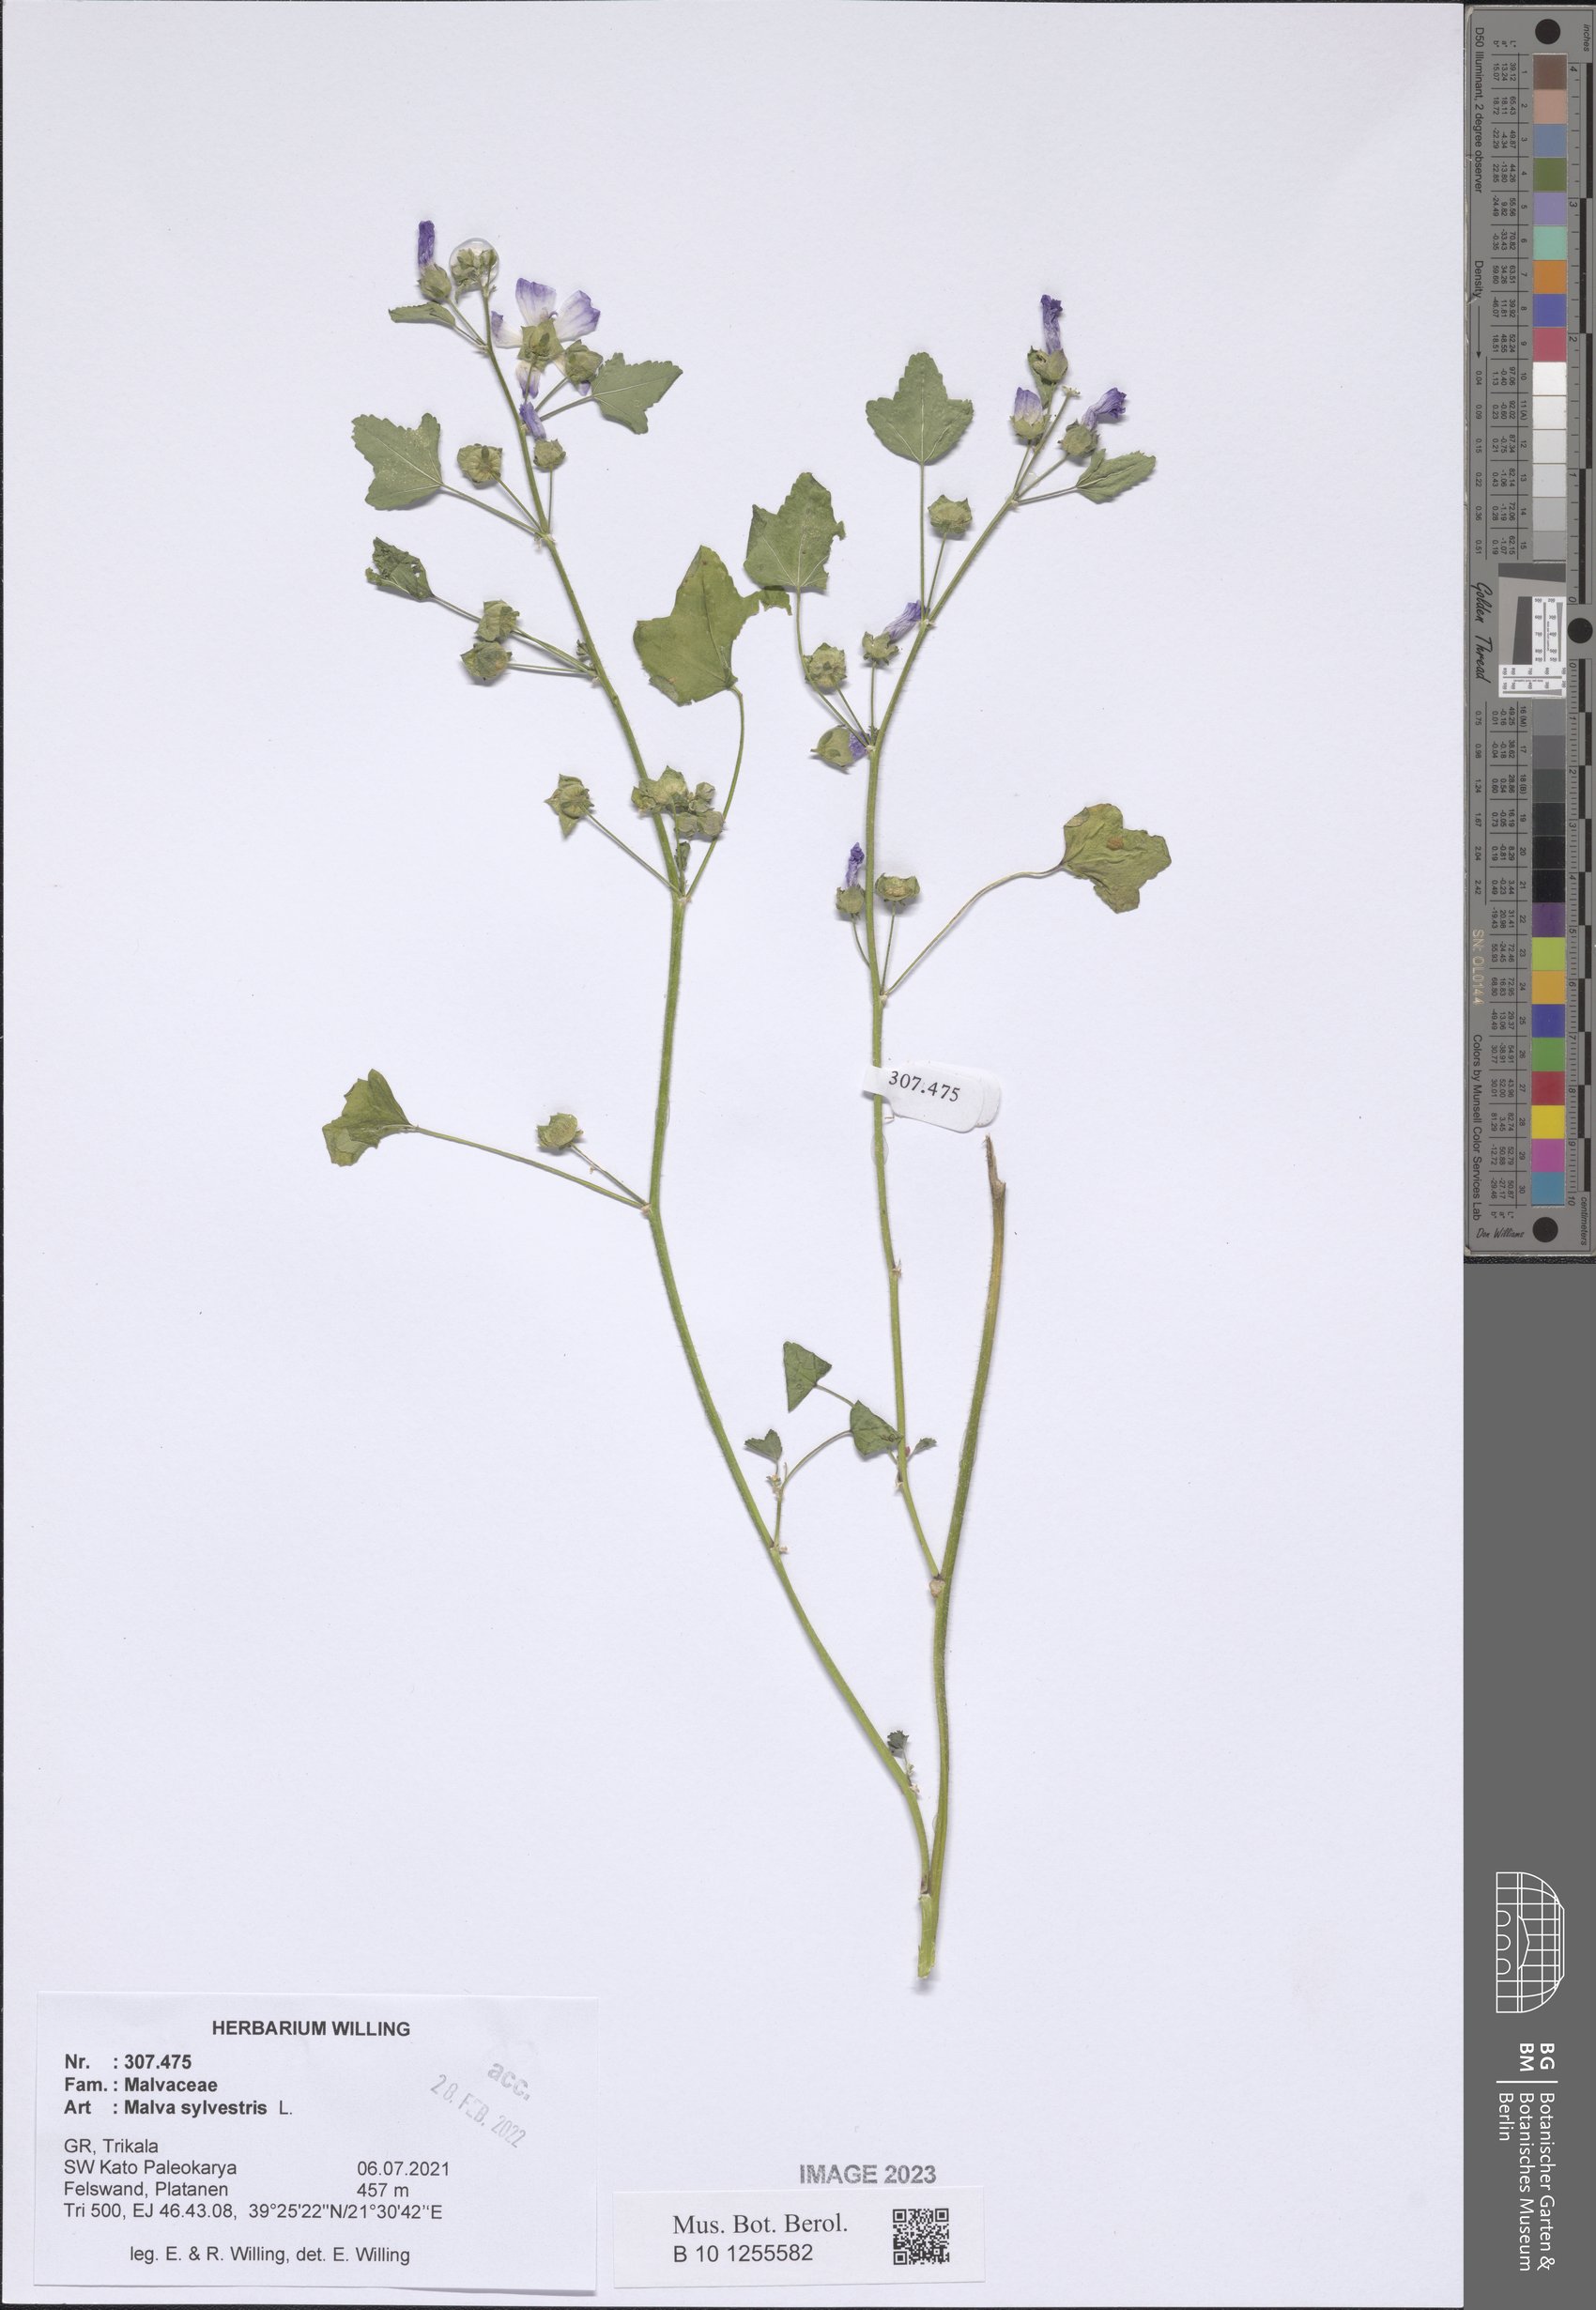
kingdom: Plantae
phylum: Tracheophyta
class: Magnoliopsida
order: Malvales
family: Malvaceae
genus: Malva
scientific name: Malva sylvestris
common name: Common mallow
